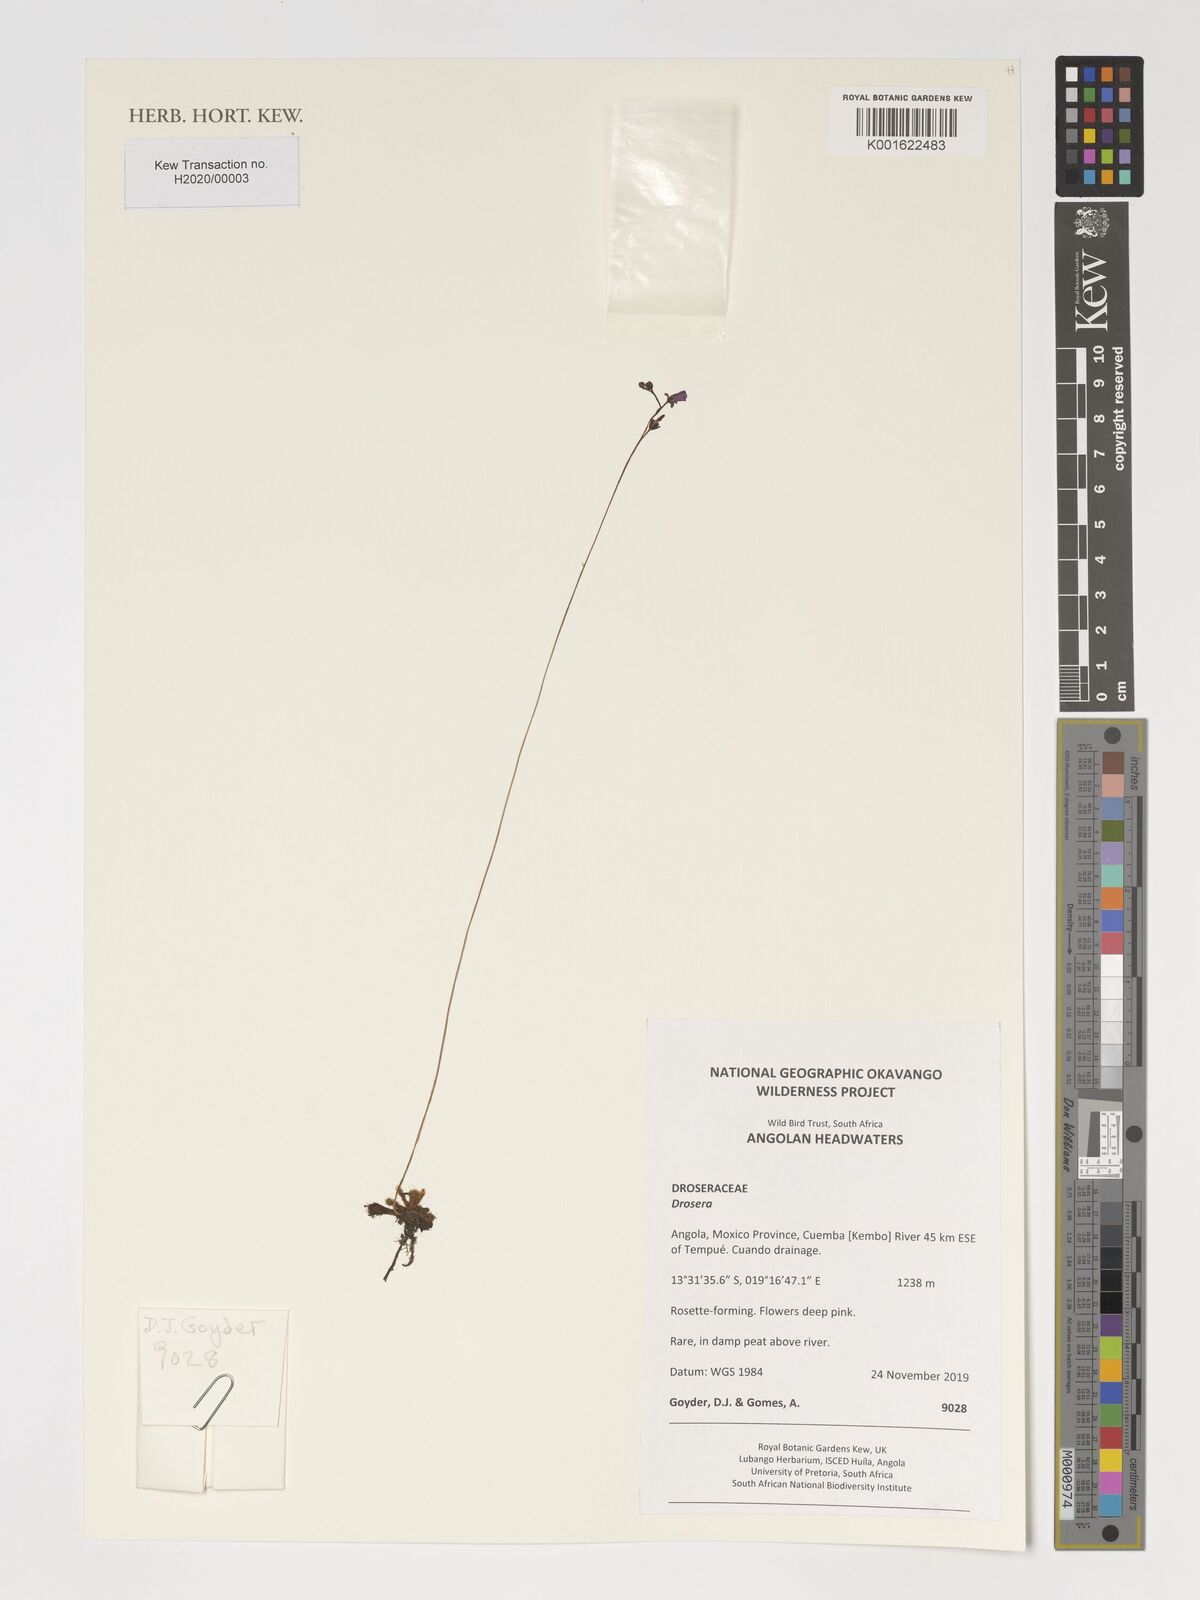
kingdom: Plantae
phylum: Tracheophyta
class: Magnoliopsida
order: Caryophyllales
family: Droseraceae
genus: Drosera
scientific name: Drosera
